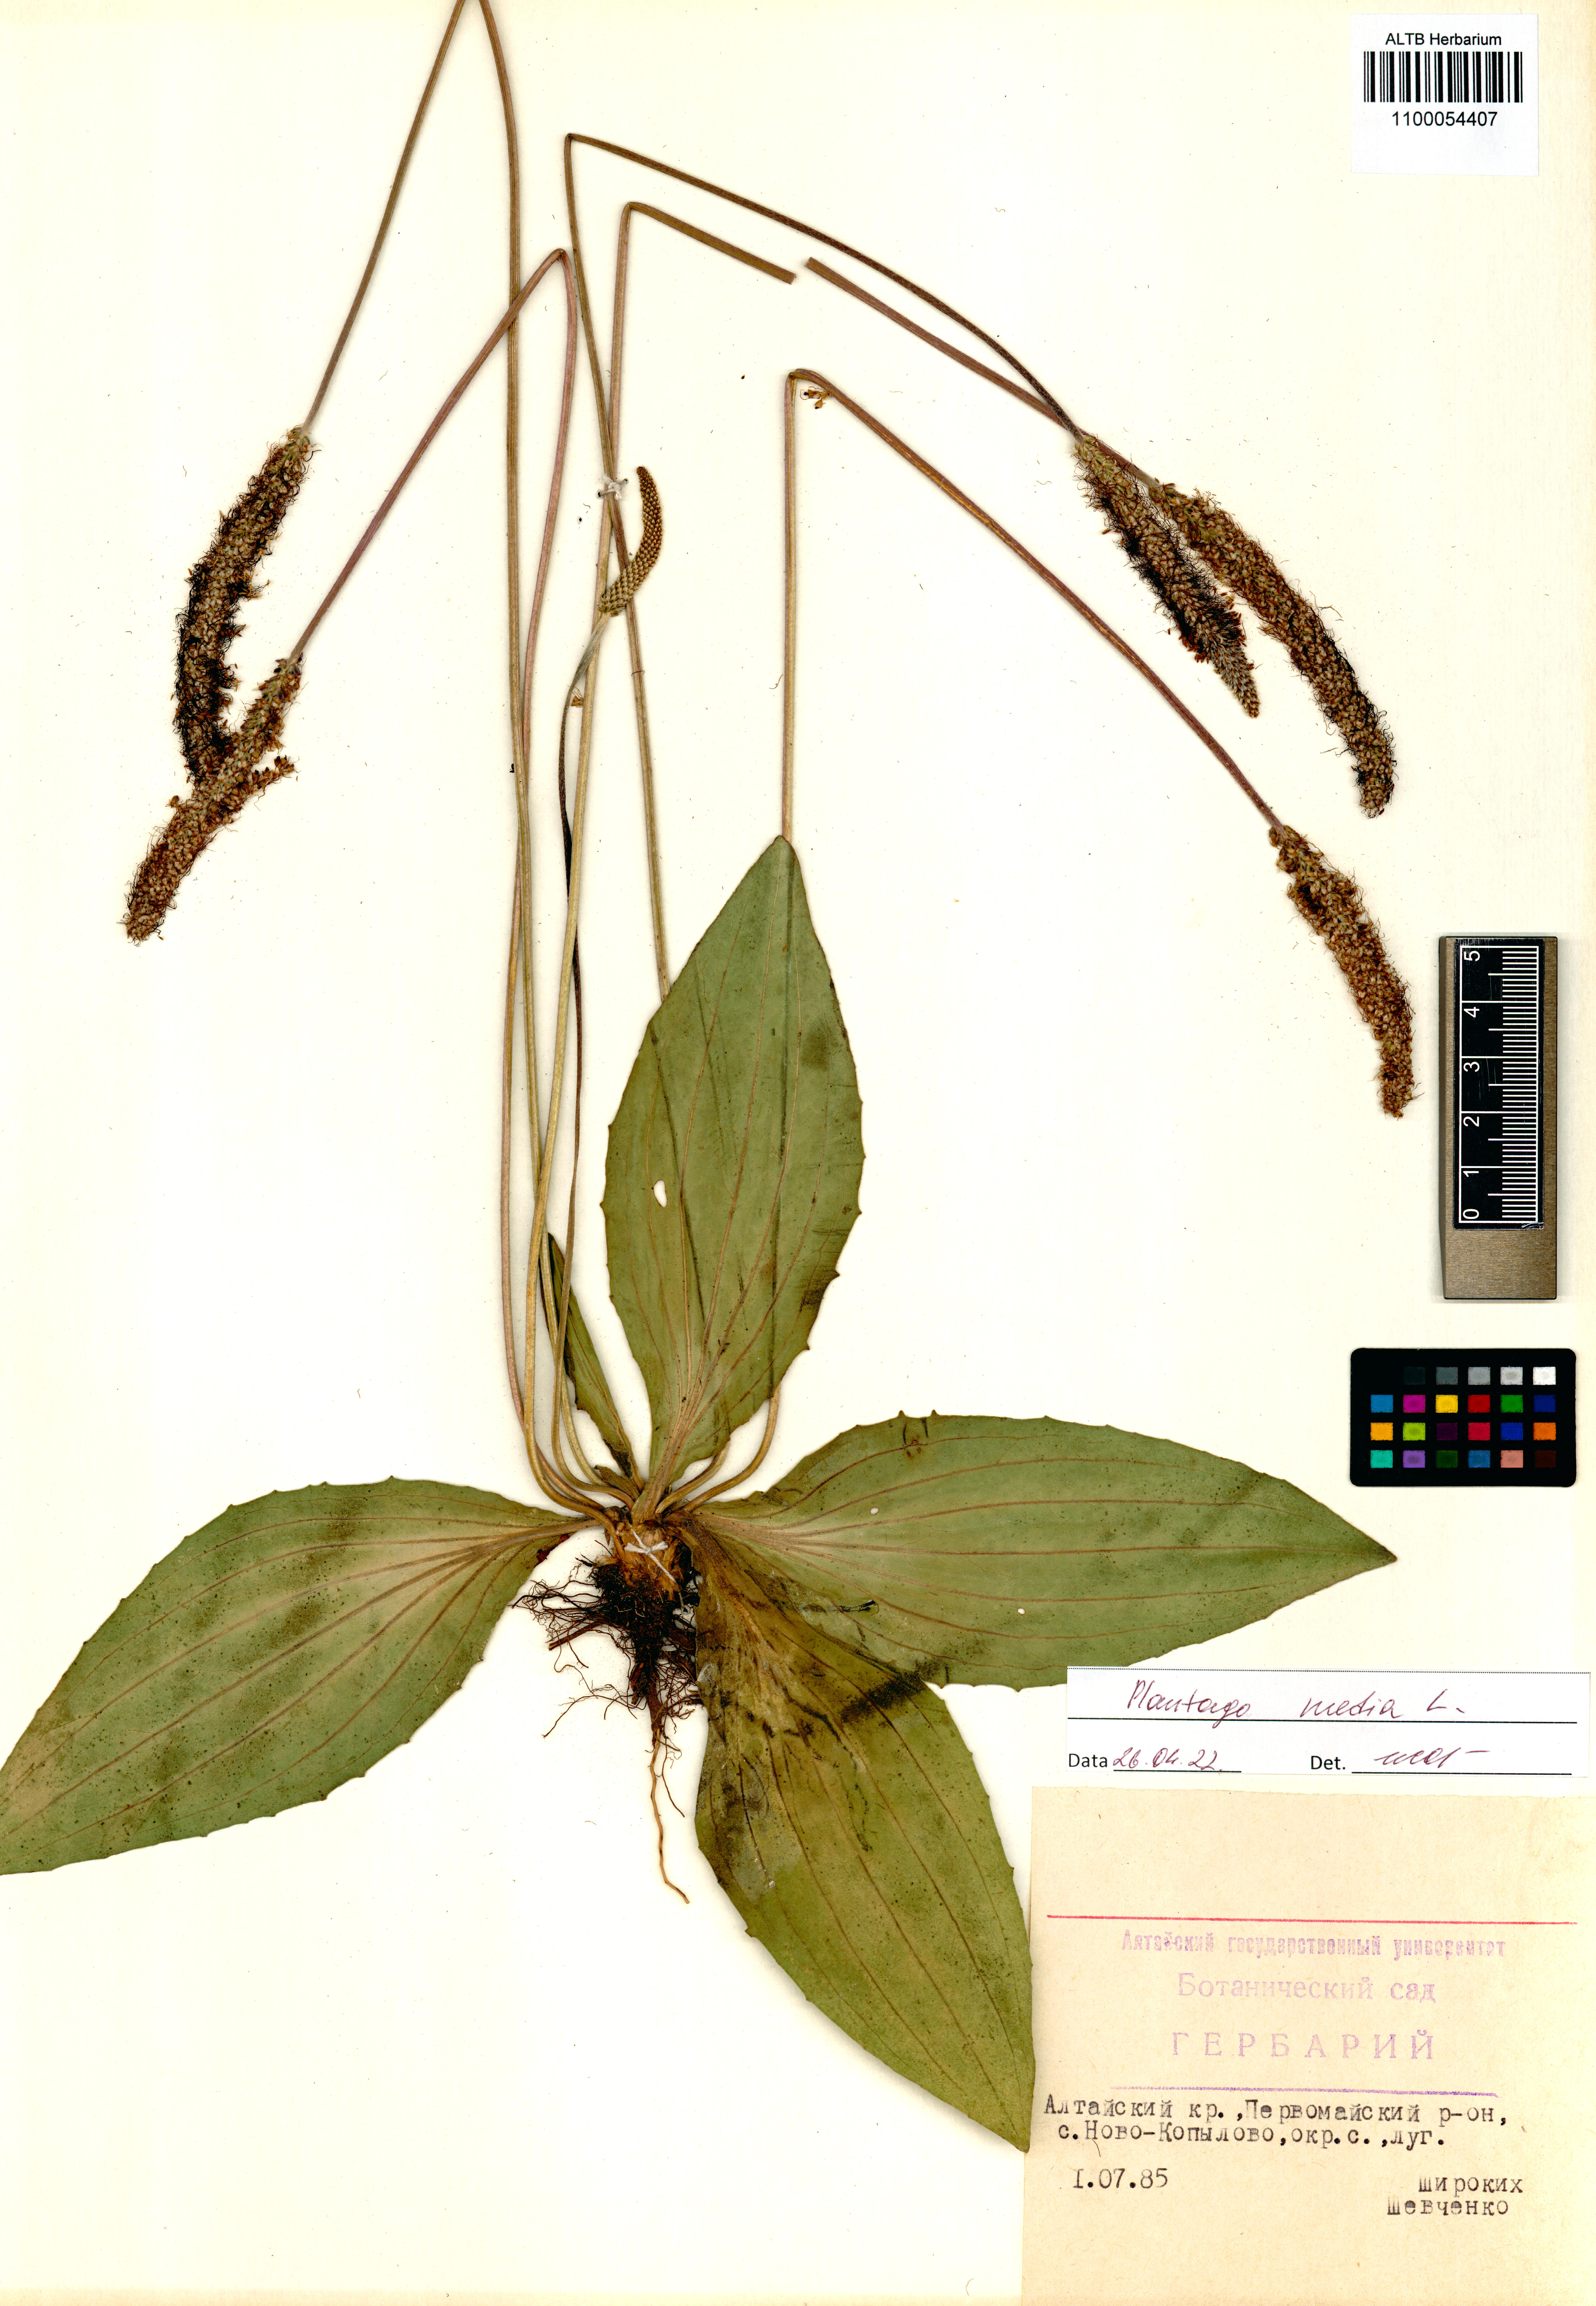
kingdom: Plantae
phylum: Tracheophyta
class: Magnoliopsida
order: Lamiales
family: Plantaginaceae
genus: Plantago
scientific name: Plantago media
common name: Hoary plantain
